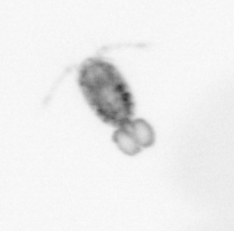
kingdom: Animalia
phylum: Arthropoda
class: Copepoda
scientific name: Copepoda
